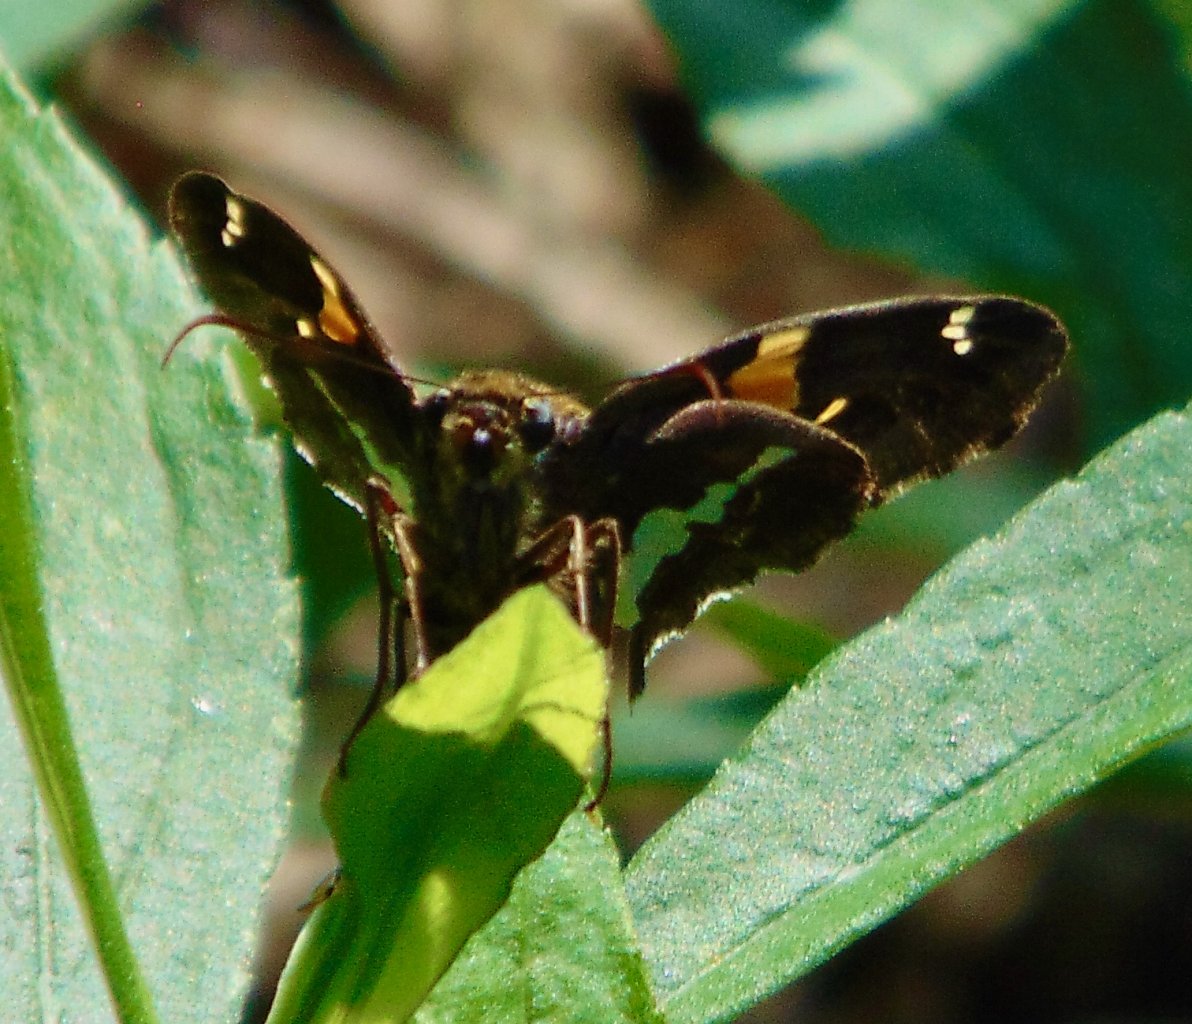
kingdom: Animalia
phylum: Arthropoda
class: Insecta
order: Lepidoptera
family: Hesperiidae
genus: Epargyreus
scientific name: Epargyreus clarus
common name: Silver-spotted Skipper
